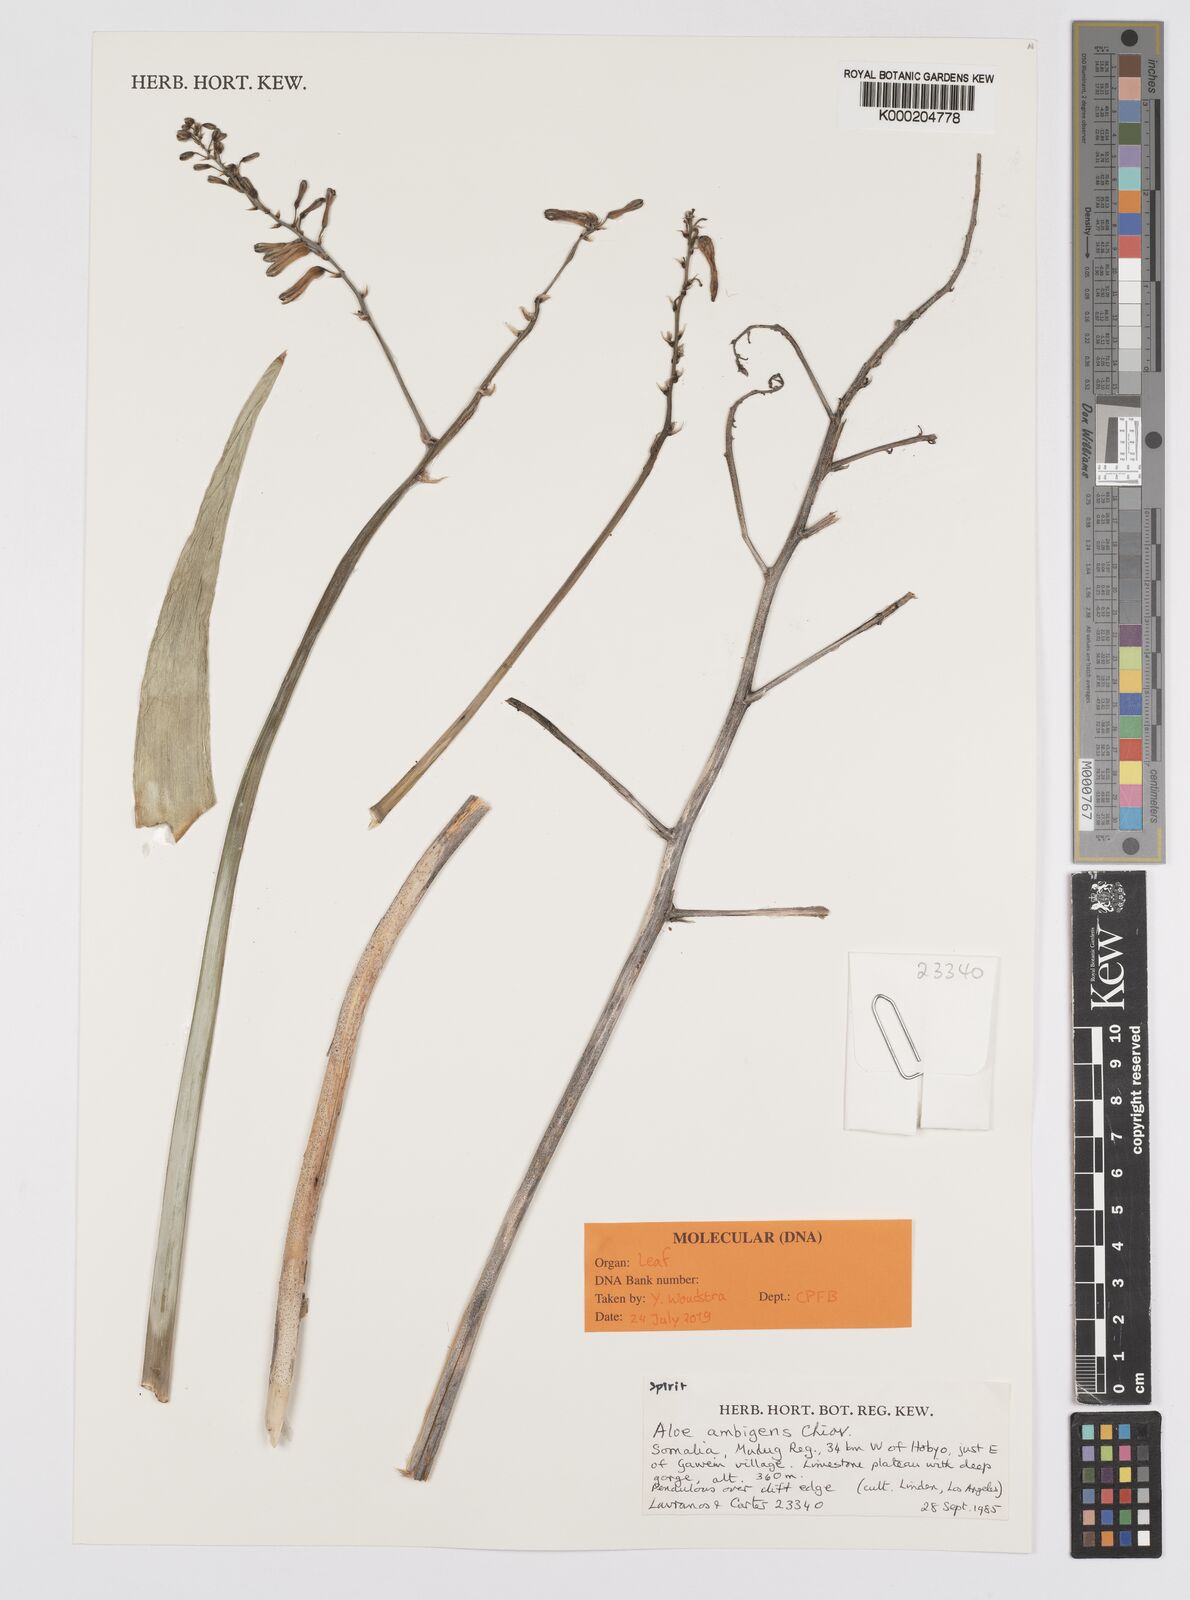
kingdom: Plantae
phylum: Tracheophyta
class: Liliopsida
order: Asparagales
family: Asphodelaceae
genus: Aloe
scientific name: Aloe ambigens
